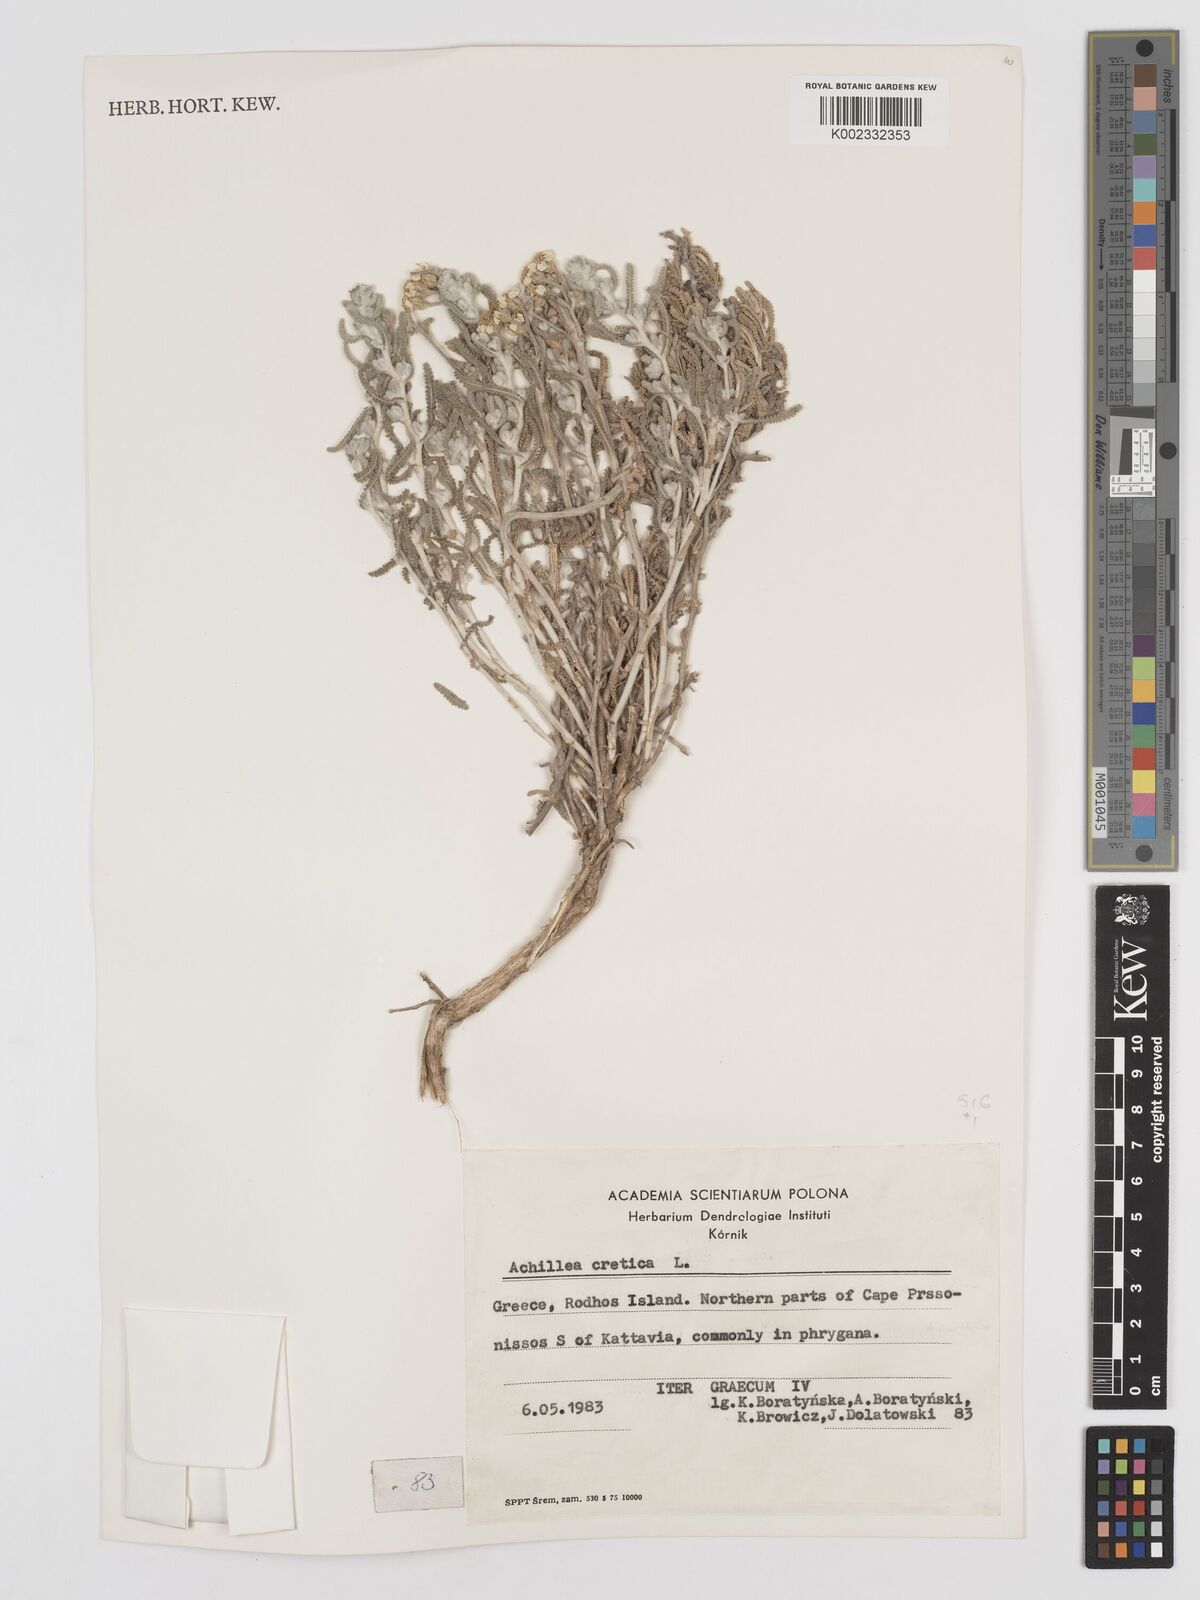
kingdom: Plantae
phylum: Tracheophyta
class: Magnoliopsida
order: Asterales
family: Asteraceae
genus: Achillea
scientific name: Achillea cretica
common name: Chamomile-leaved lavender-cotton
